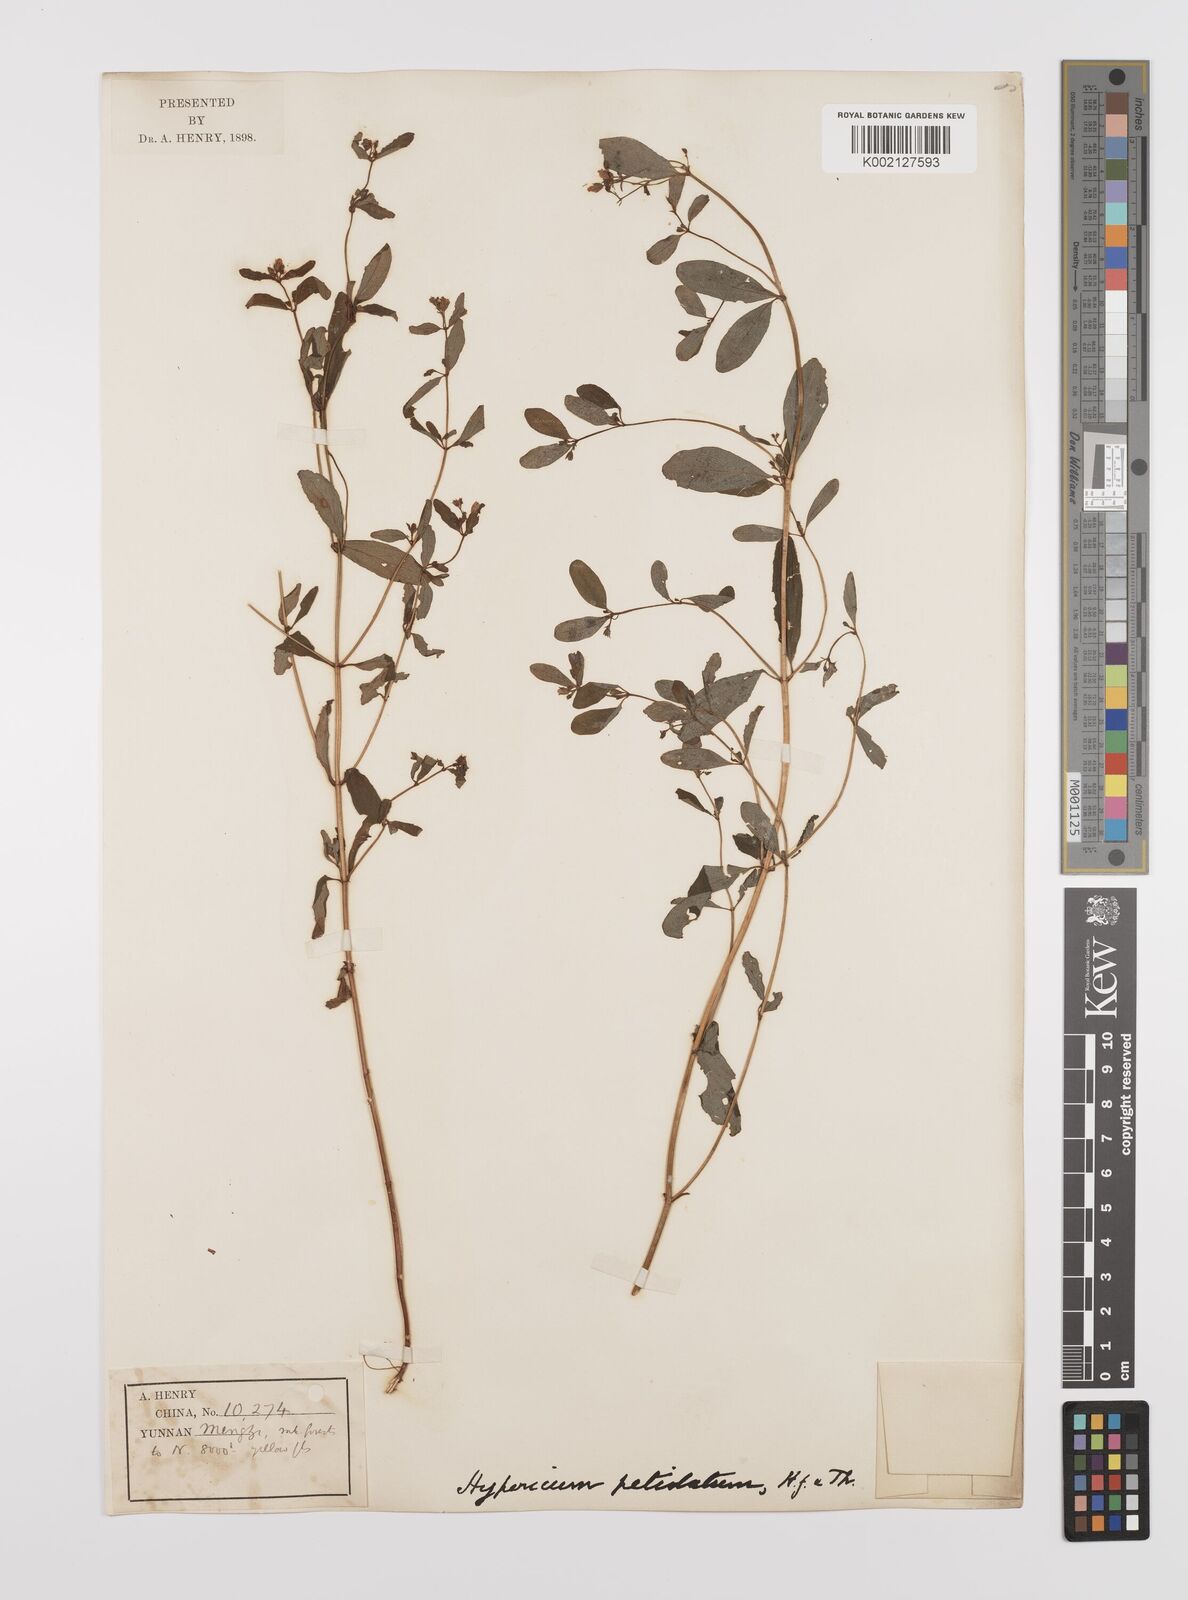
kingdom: Plantae
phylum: Tracheophyta
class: Magnoliopsida
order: Malpighiales
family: Hypericaceae
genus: Hypericum
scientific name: Hypericum petiolulatum
